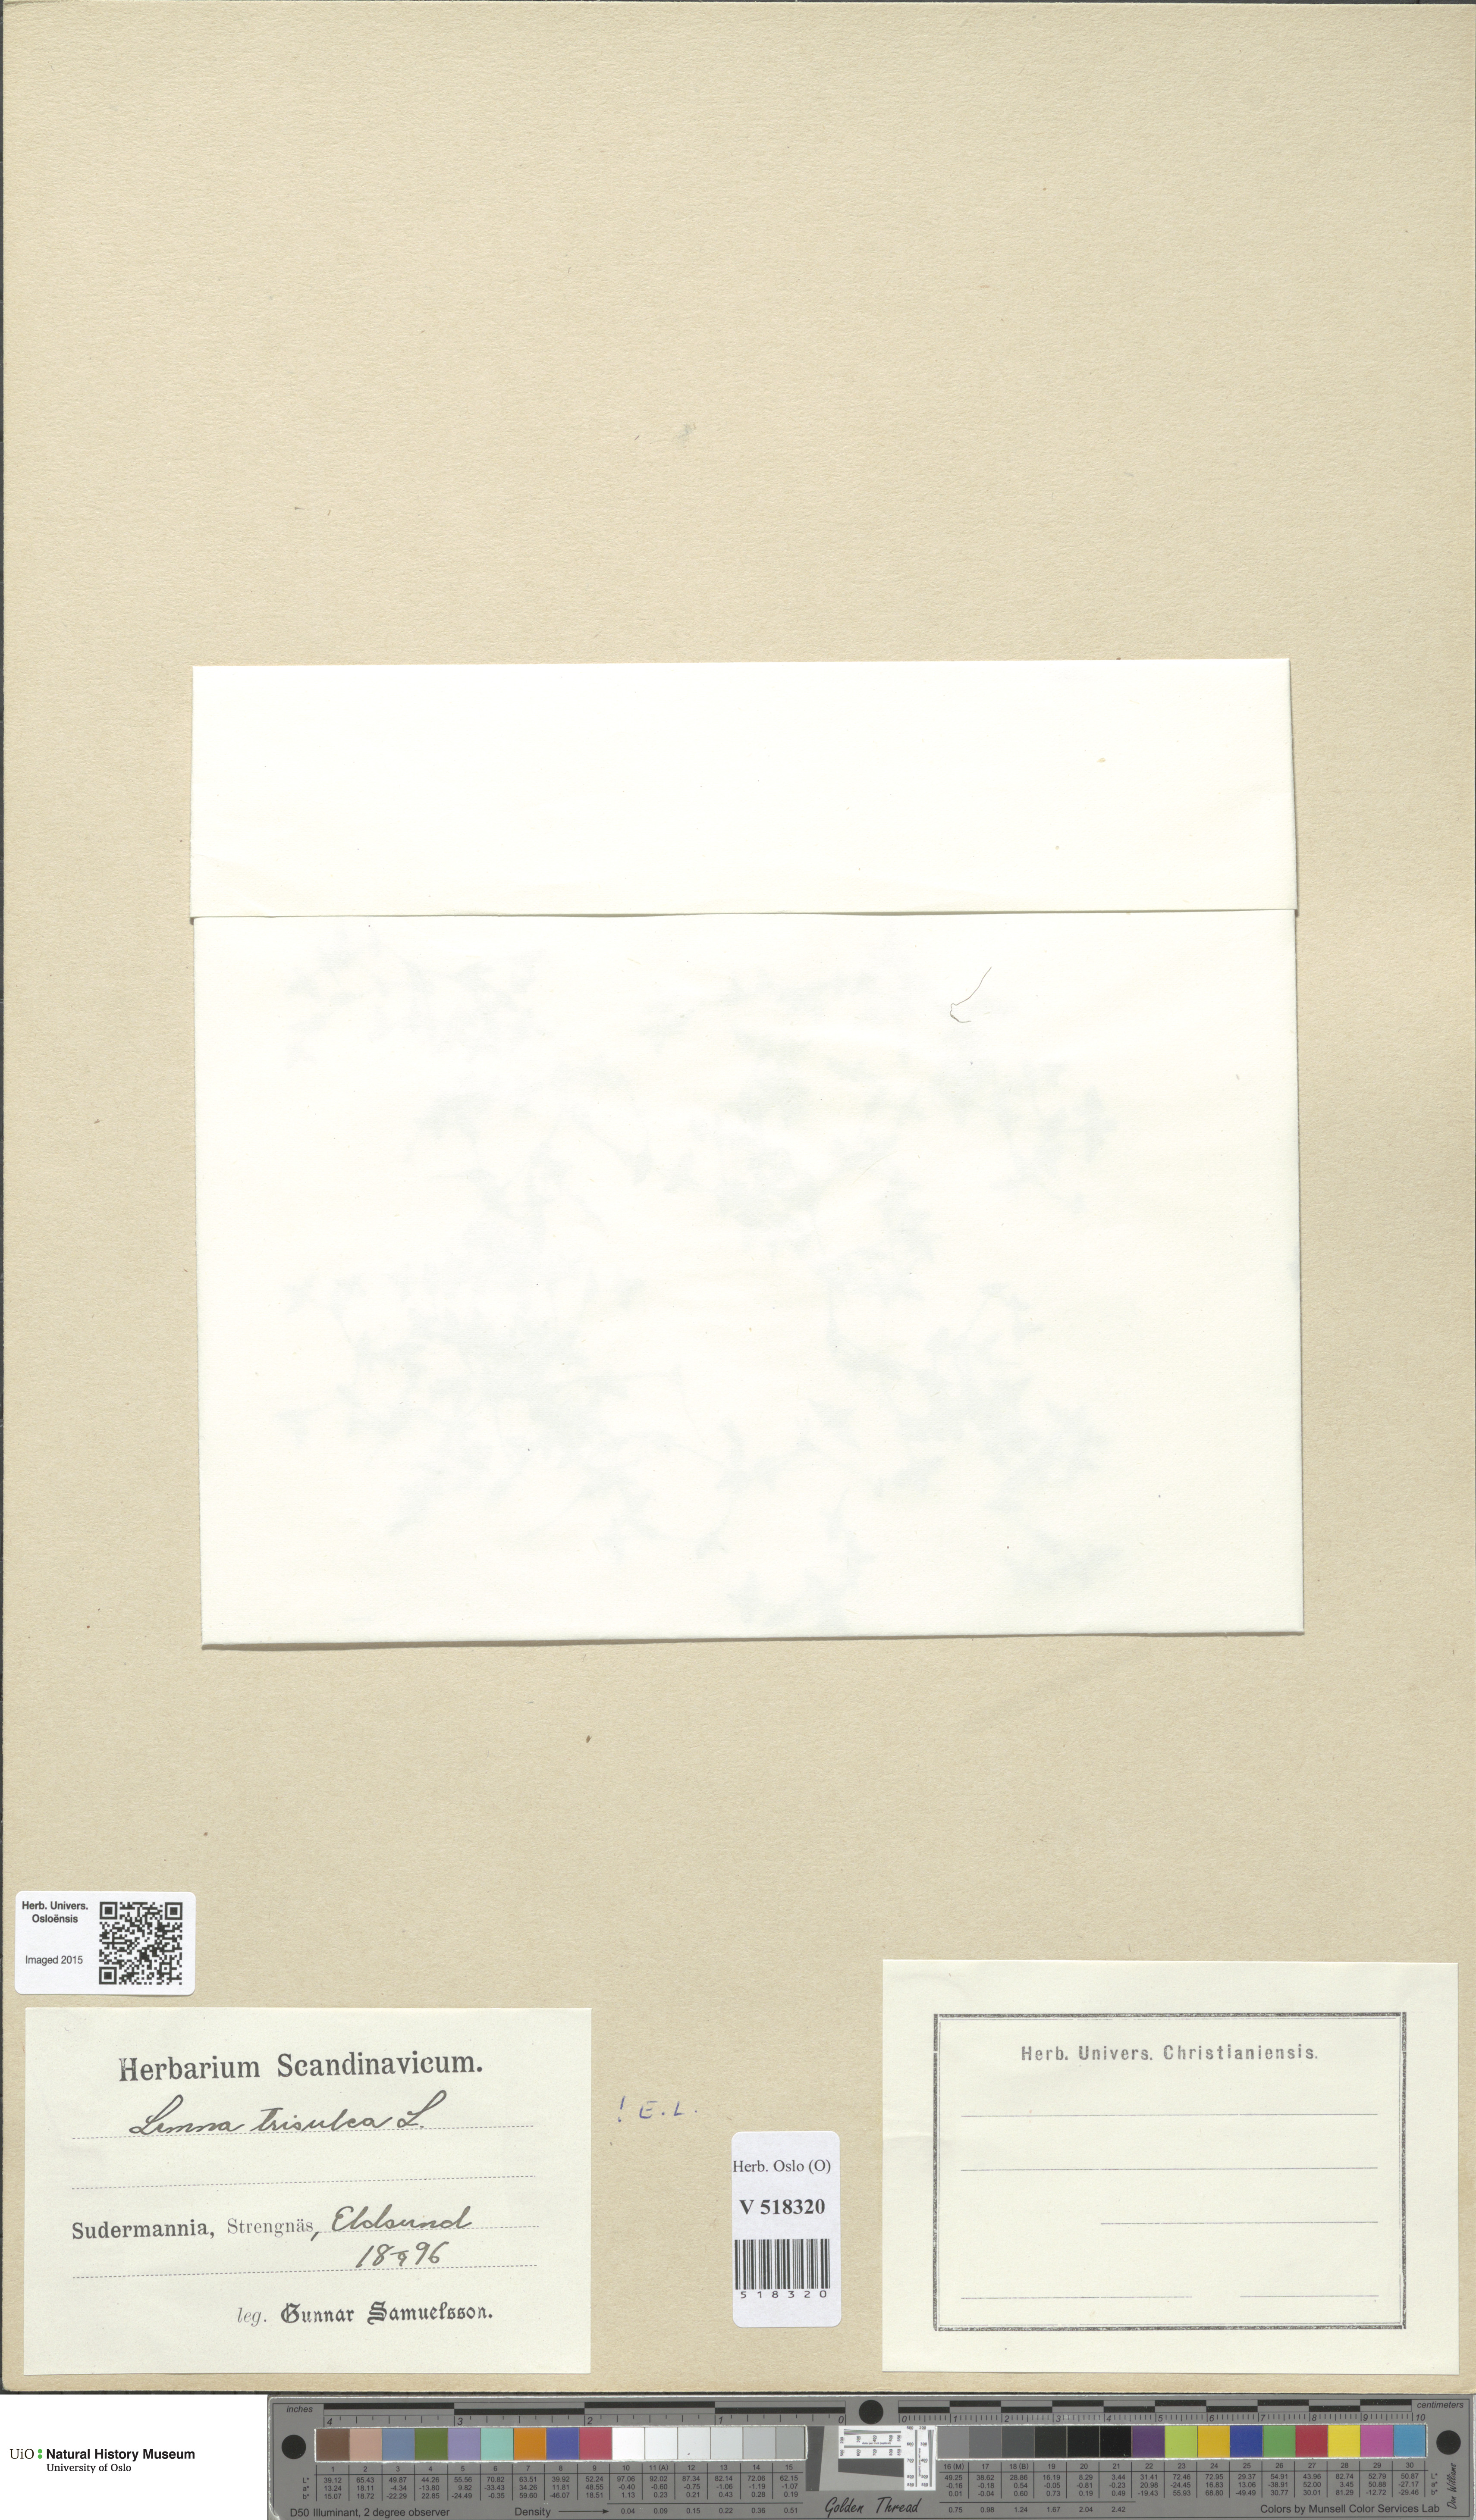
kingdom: Plantae
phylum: Tracheophyta
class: Liliopsida
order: Alismatales
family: Araceae
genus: Lemna
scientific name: Lemna trisulca
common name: Ivy-leaved duckweed
